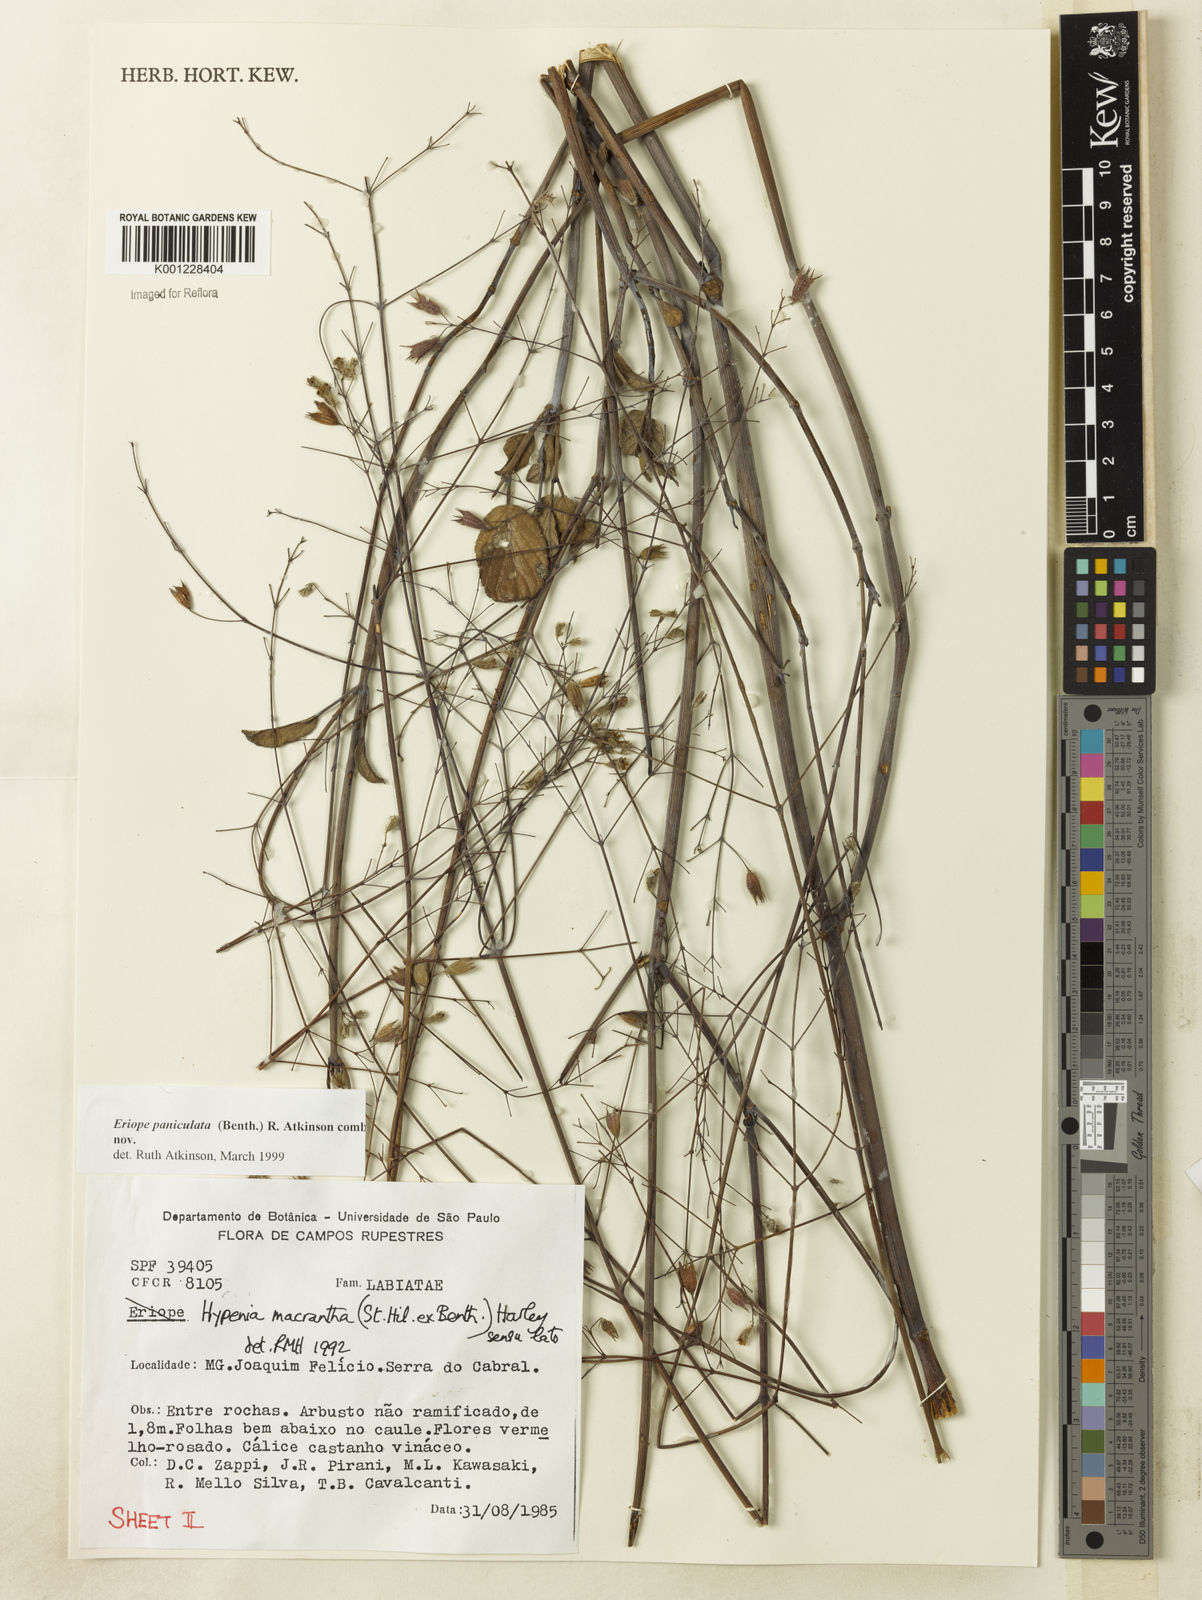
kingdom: Plantae
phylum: Tracheophyta
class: Magnoliopsida
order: Lamiales
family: Lamiaceae
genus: Hypenia
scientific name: Hypenia paniculata
